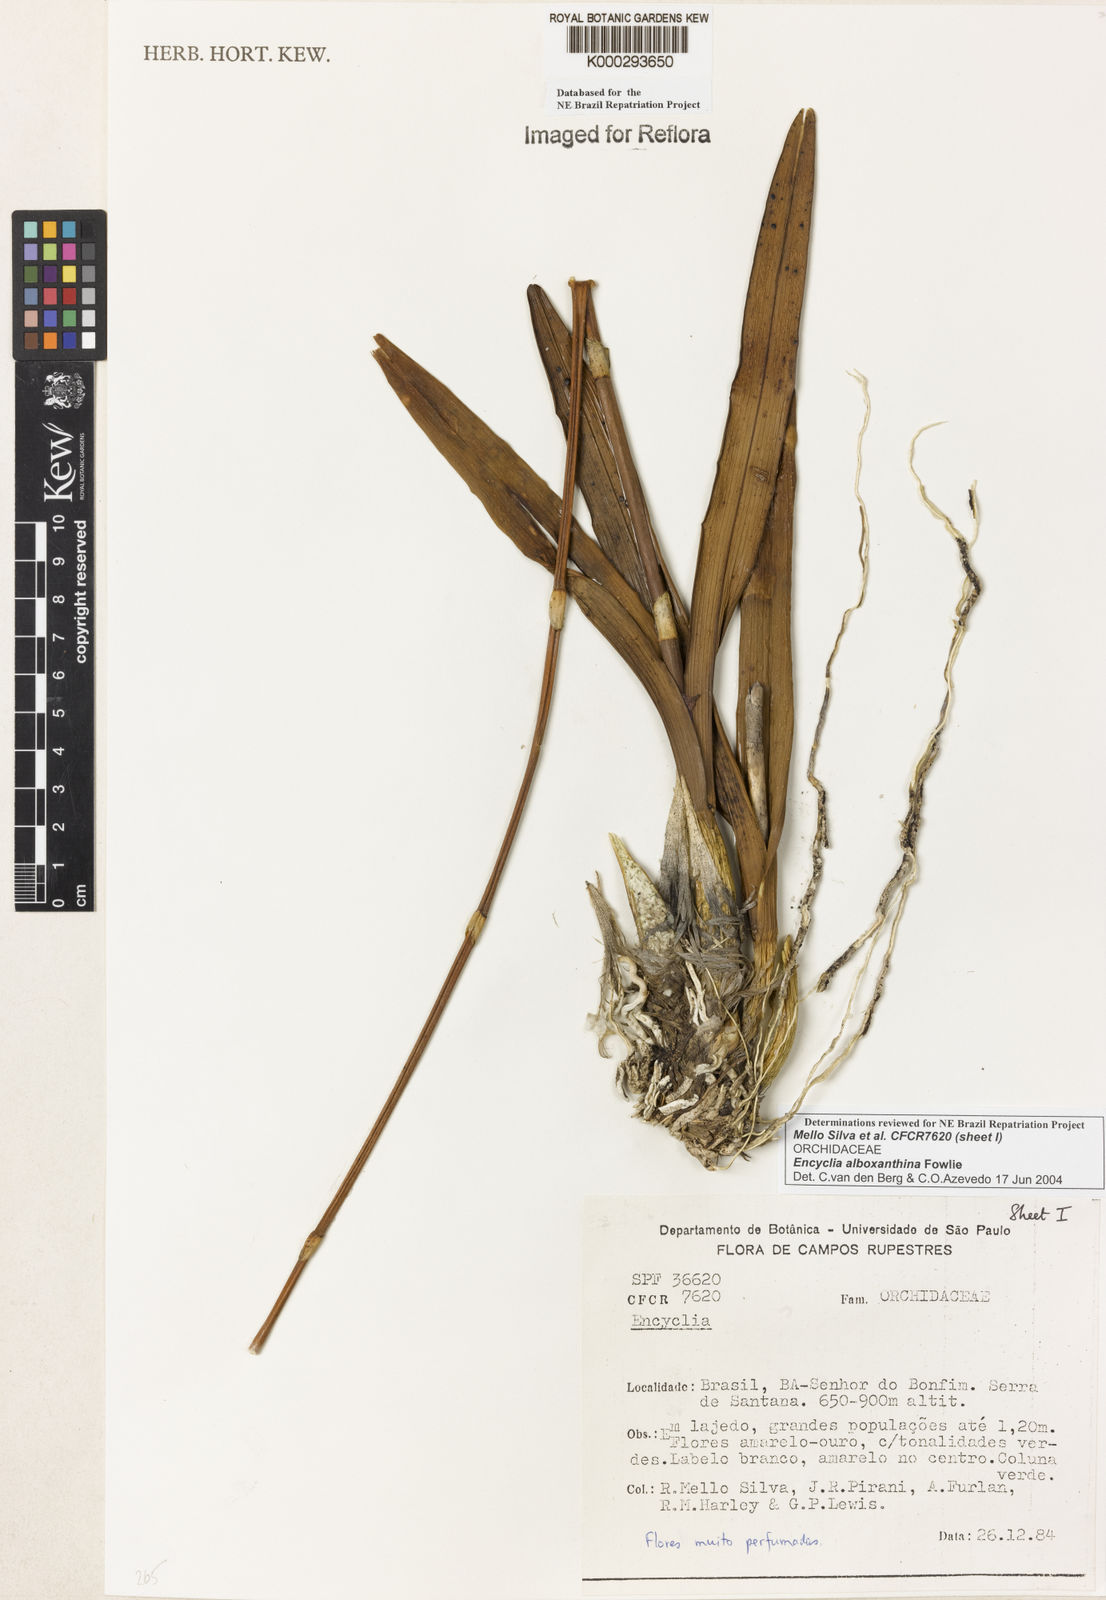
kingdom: Plantae
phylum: Tracheophyta
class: Liliopsida
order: Asparagales
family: Orchidaceae
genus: Encyclia
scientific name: Encyclia alboxanthina
